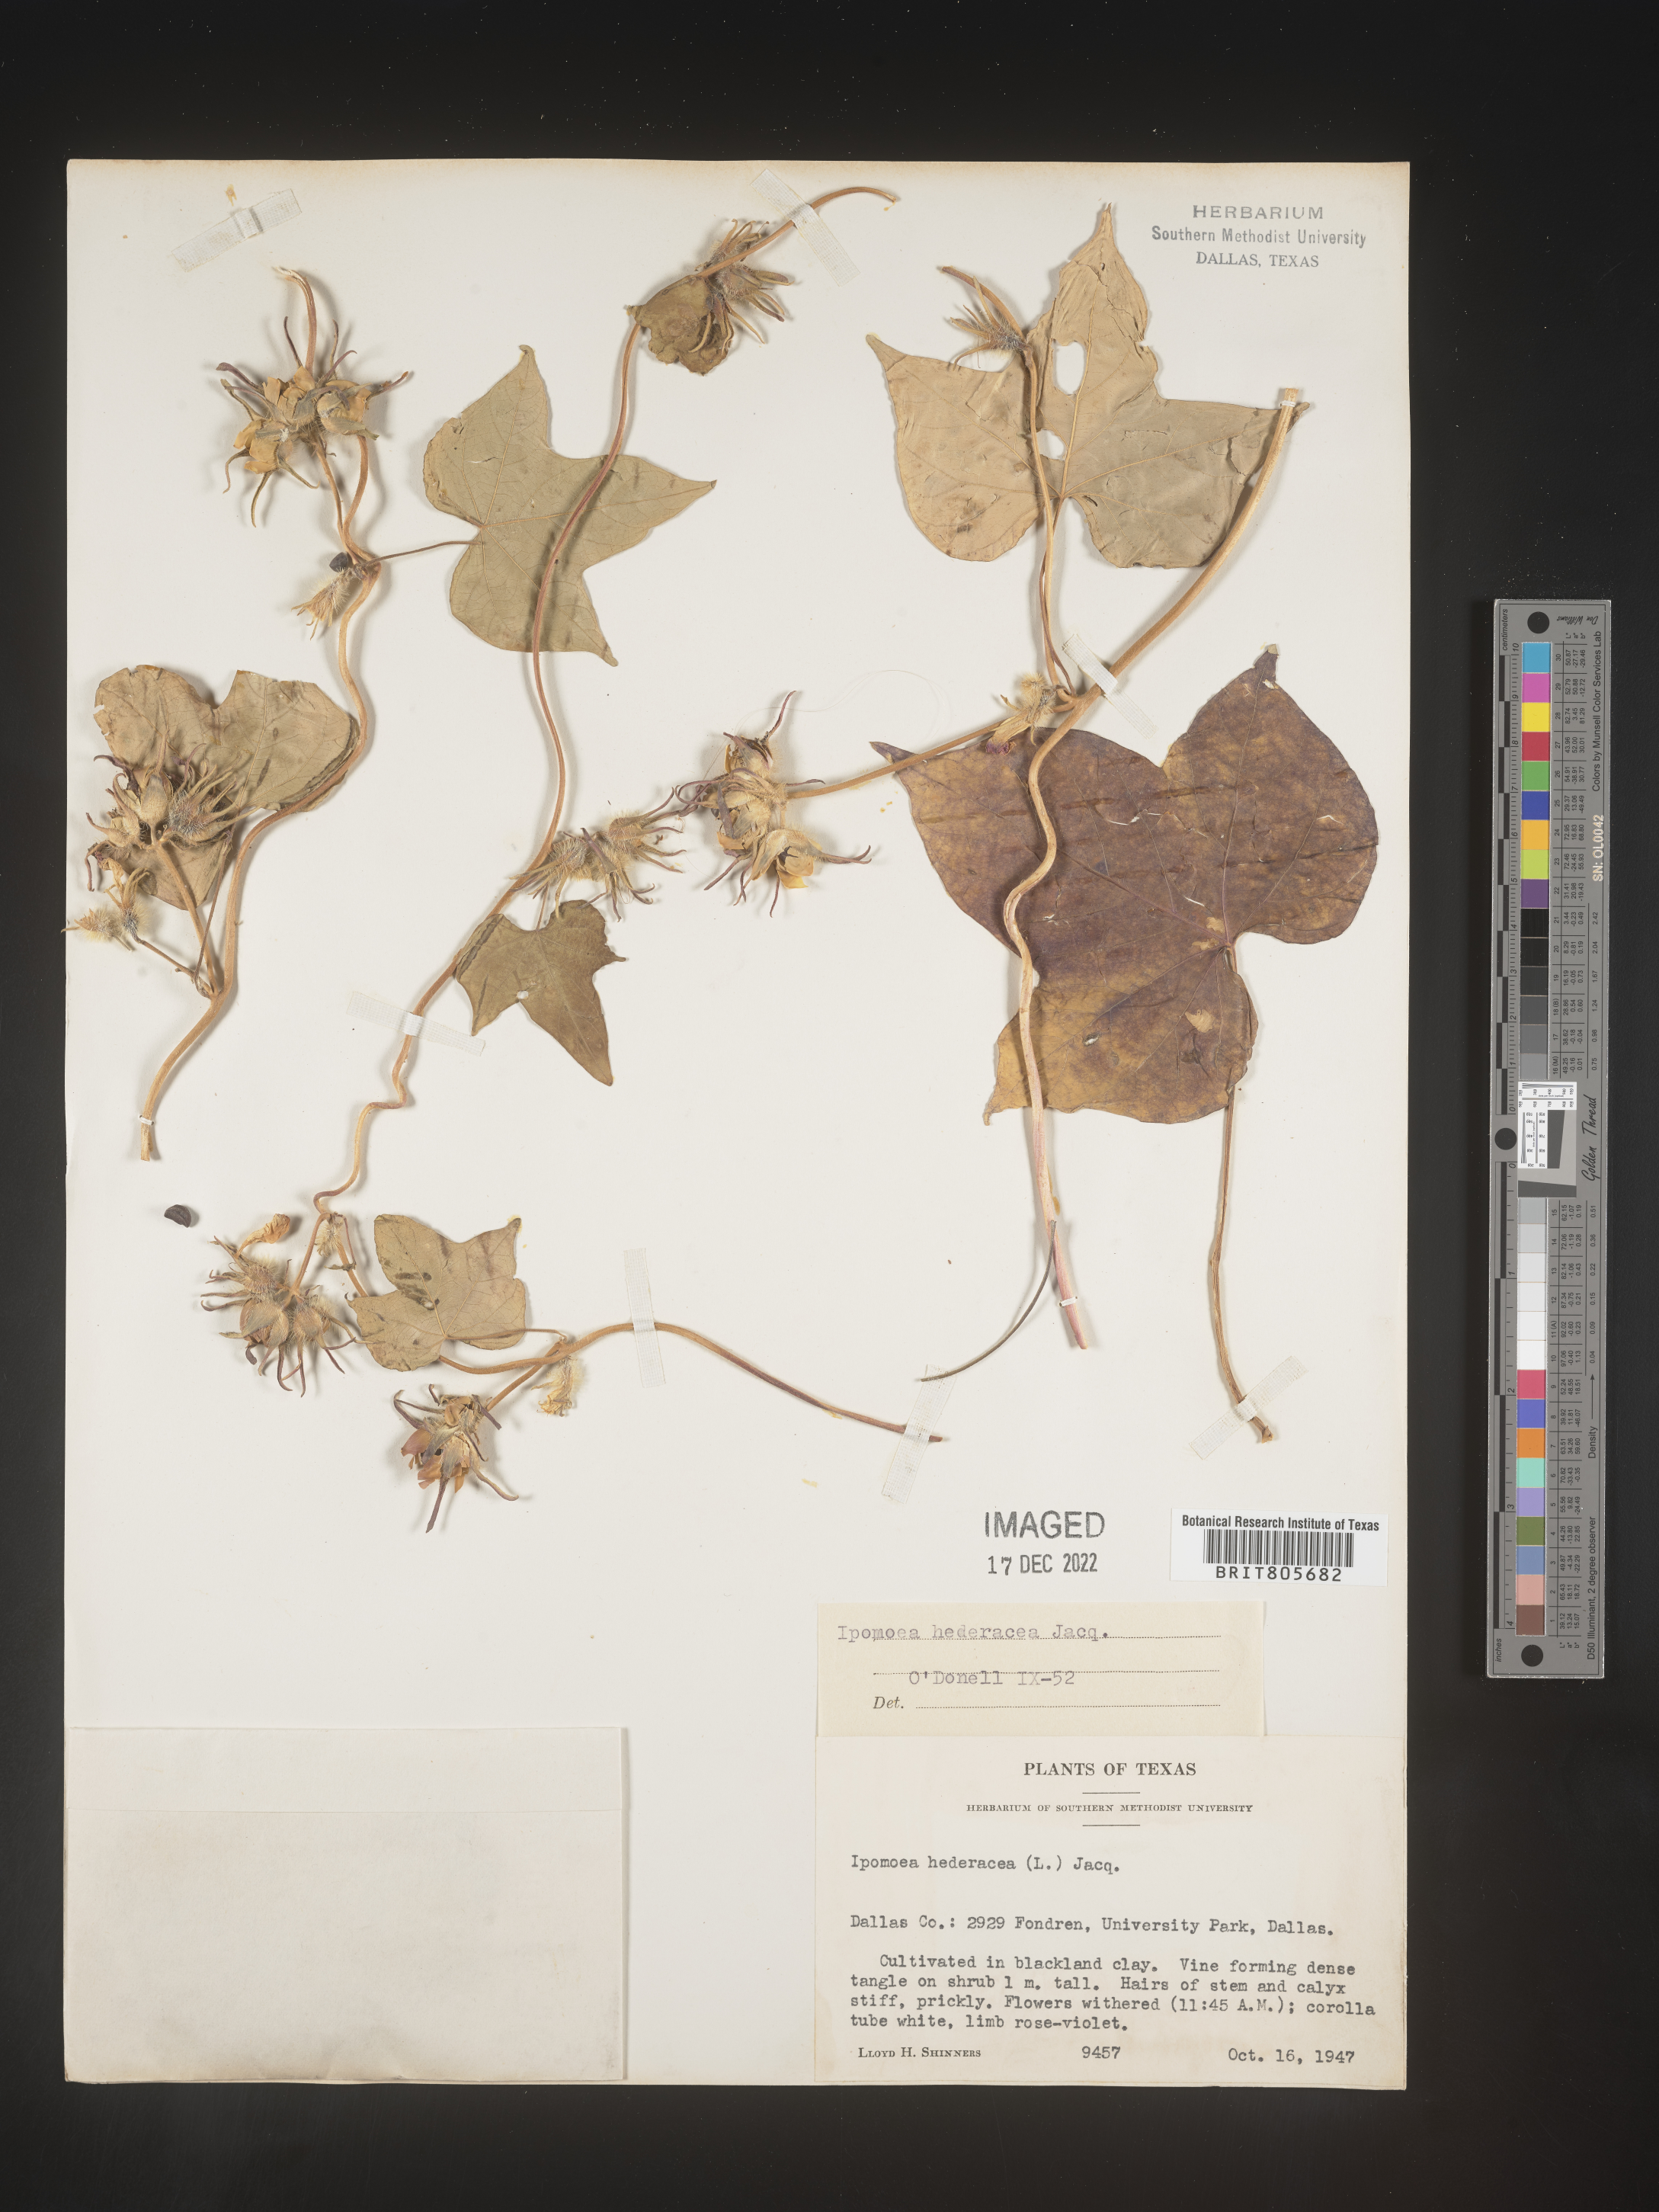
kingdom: Plantae
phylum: Tracheophyta
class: Magnoliopsida
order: Solanales
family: Convolvulaceae
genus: Ipomoea
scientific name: Ipomoea
